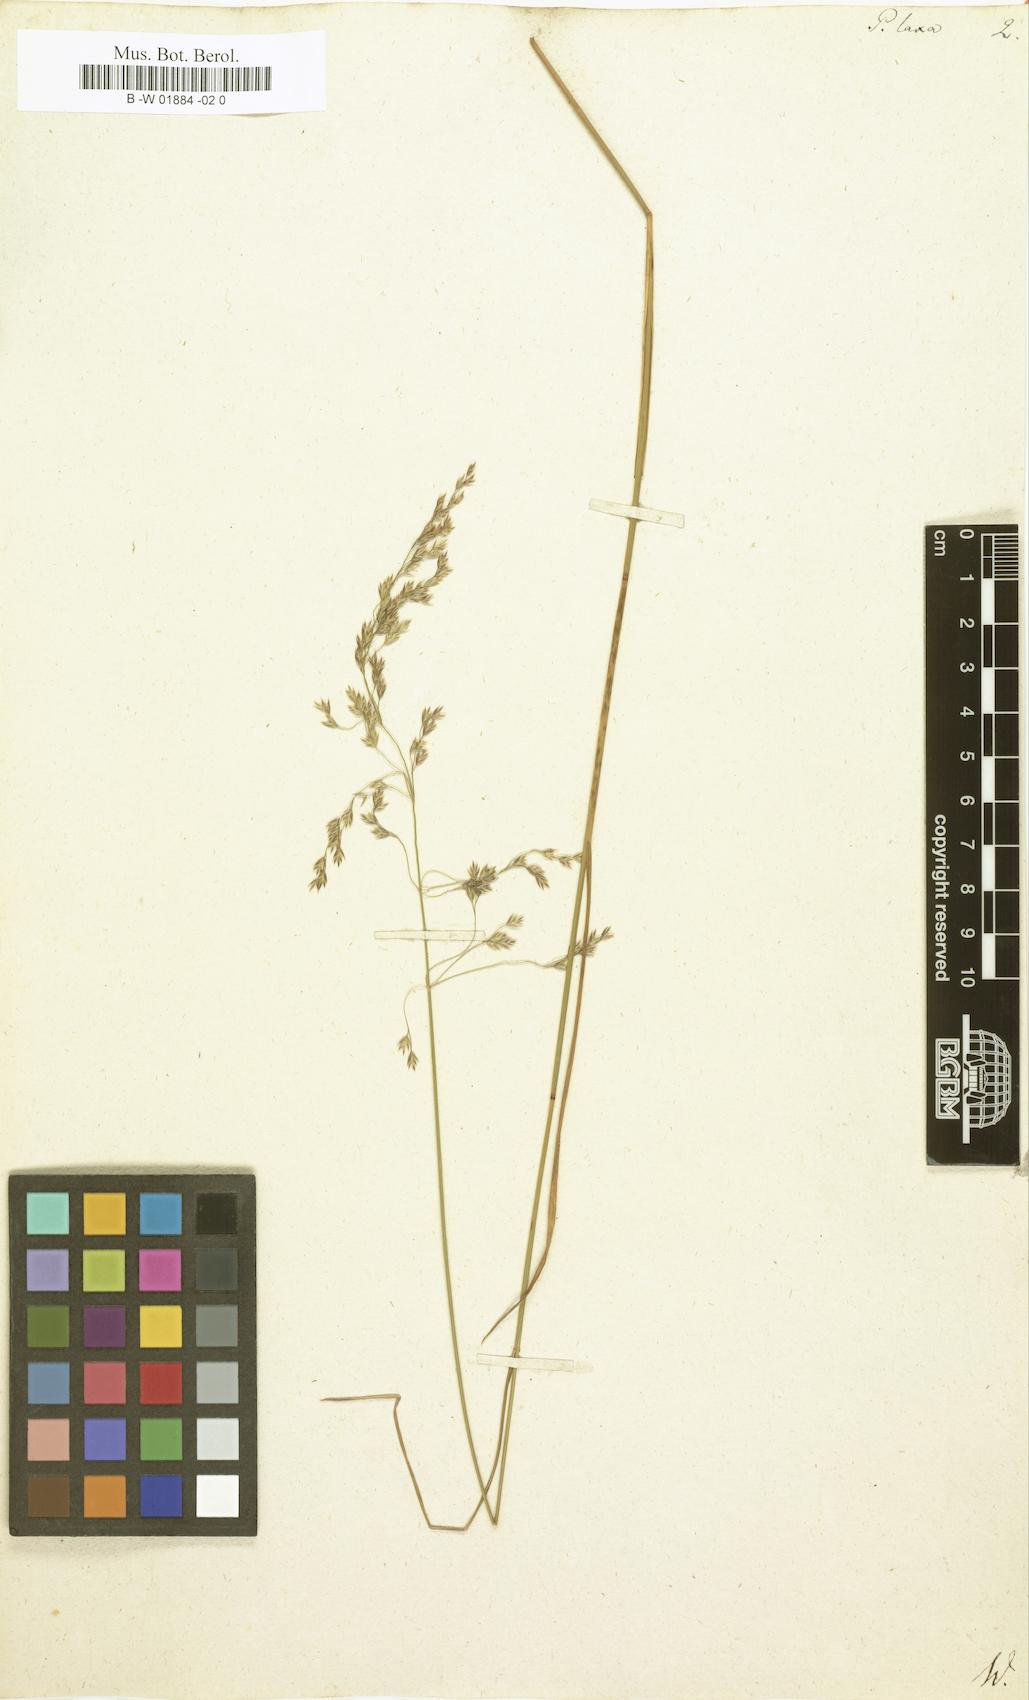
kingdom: Plantae
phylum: Tracheophyta
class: Liliopsida
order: Poales
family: Poaceae
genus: Poa
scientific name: Poa laxa
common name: Lax bluegrass
